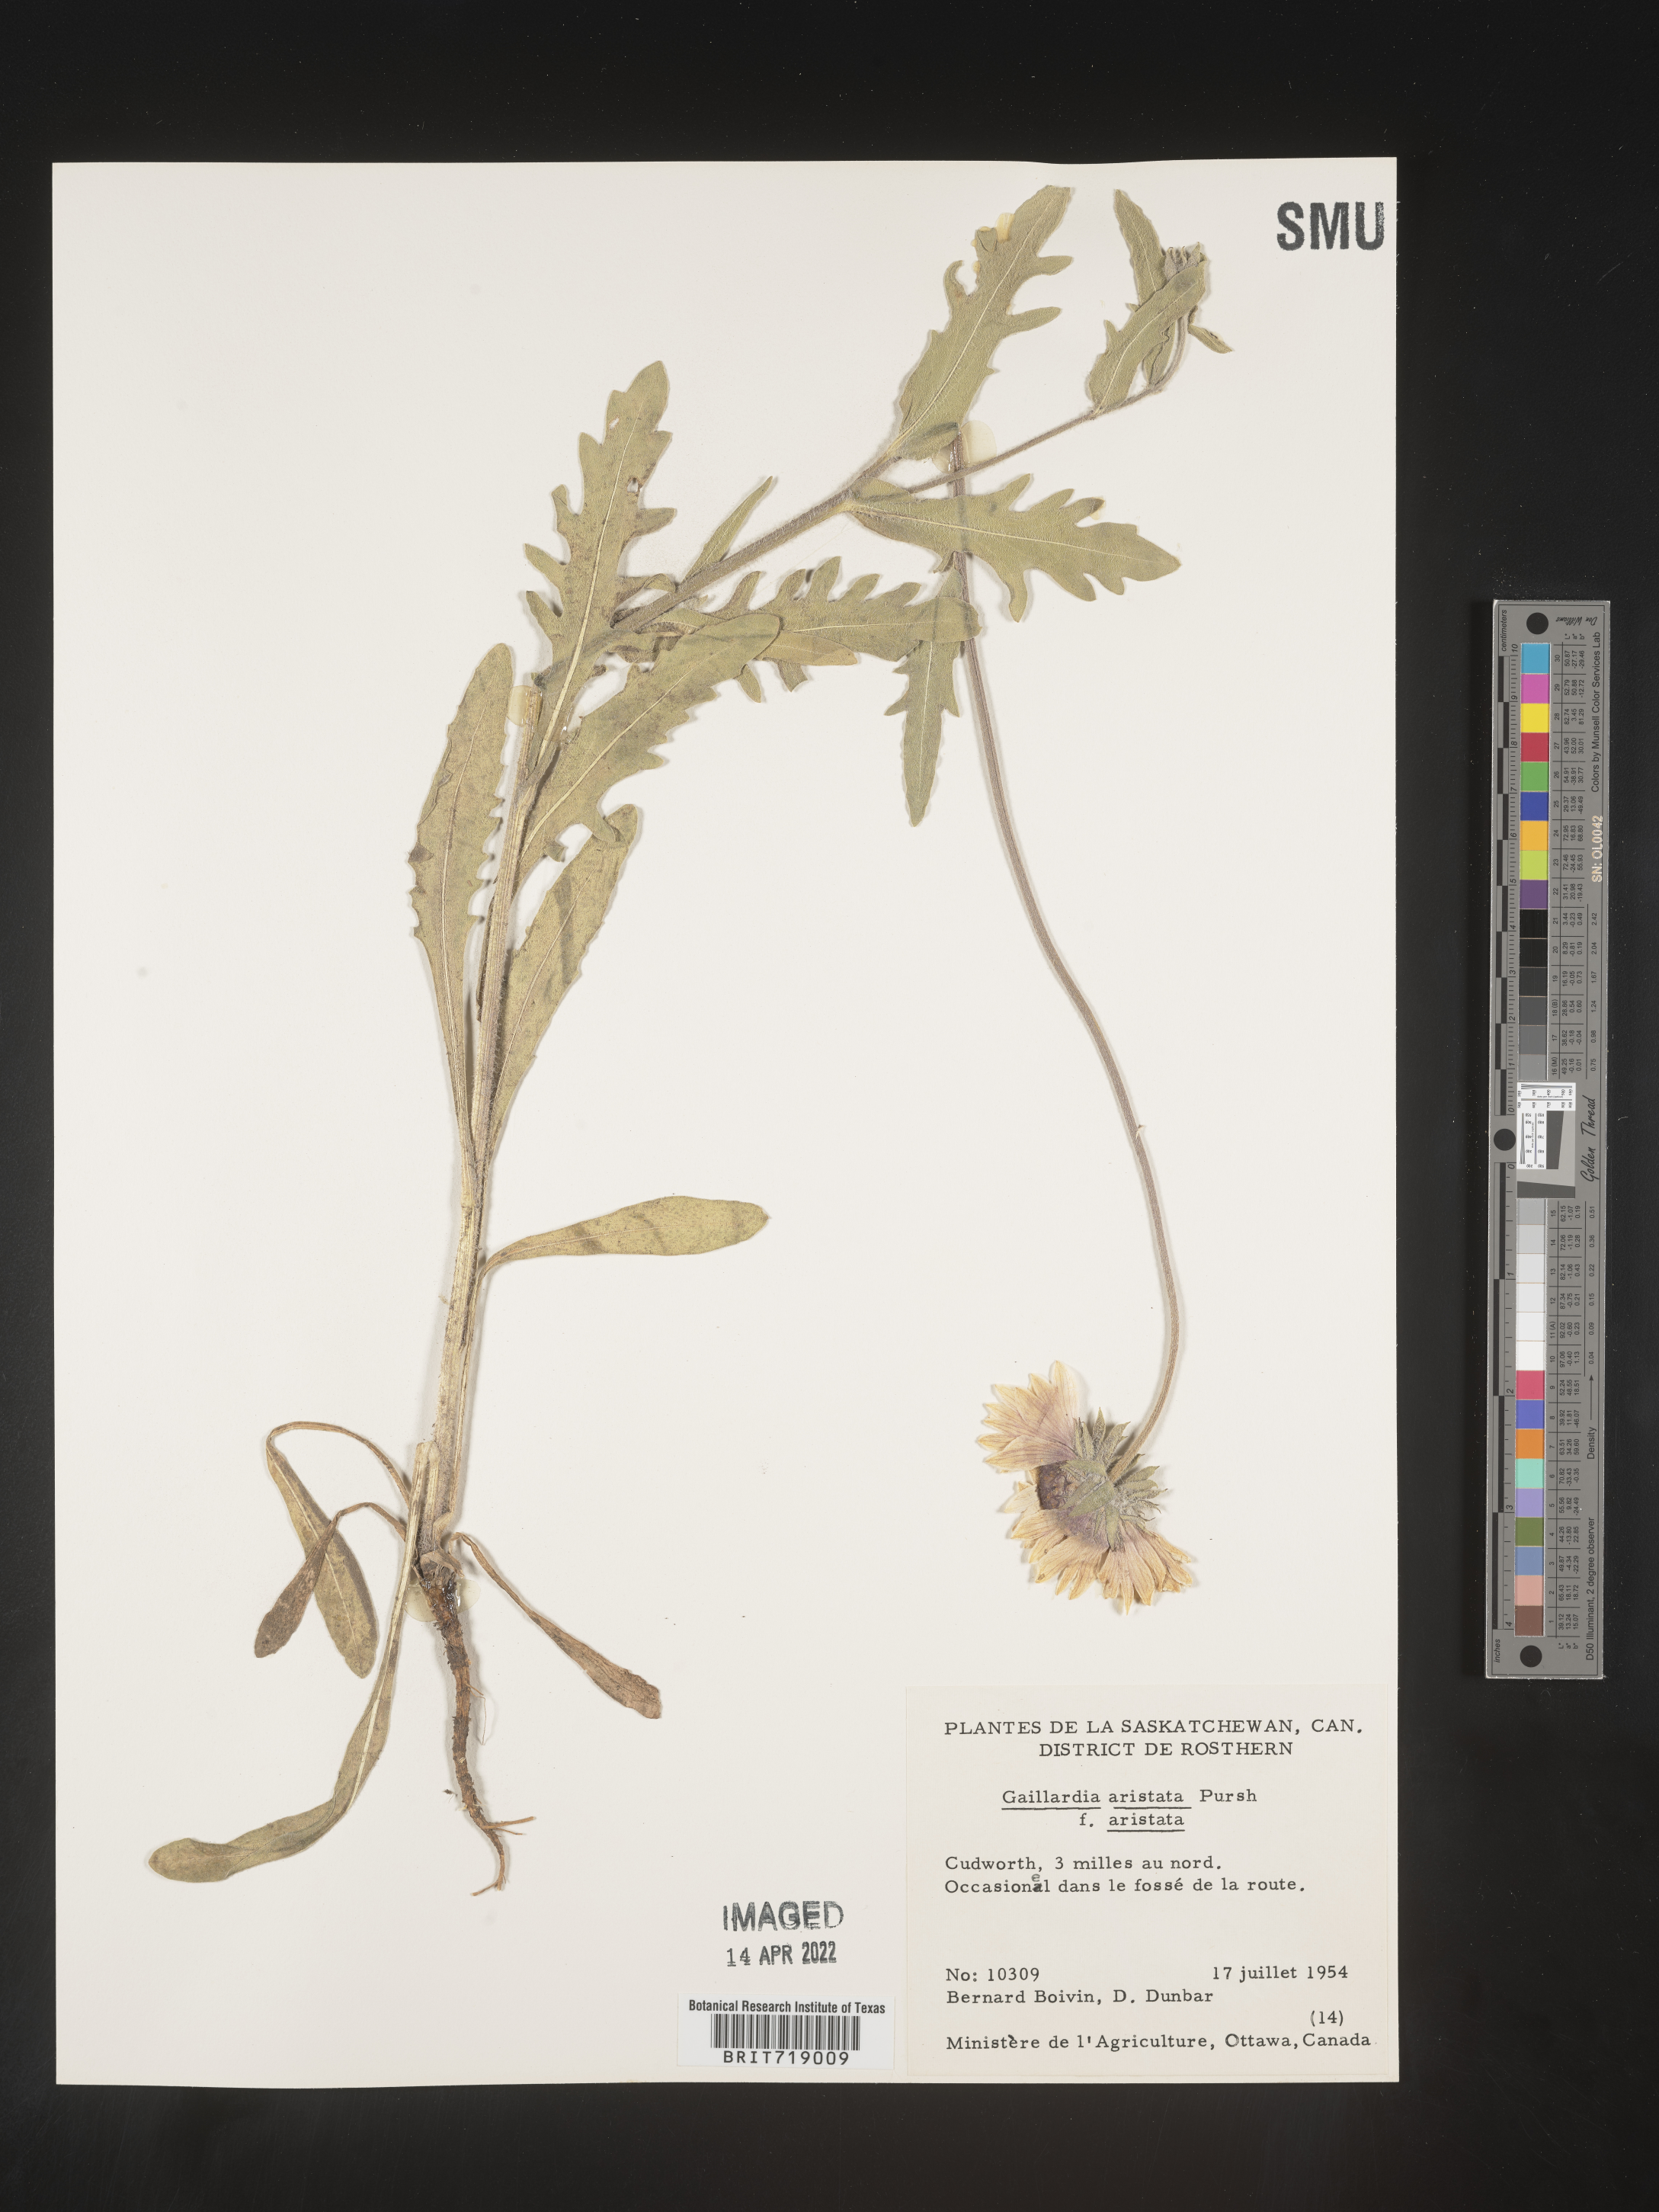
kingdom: Plantae
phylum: Tracheophyta
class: Magnoliopsida
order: Asterales
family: Asteraceae
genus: Gaillardia
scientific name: Gaillardia aristata
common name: Blanket-flower
